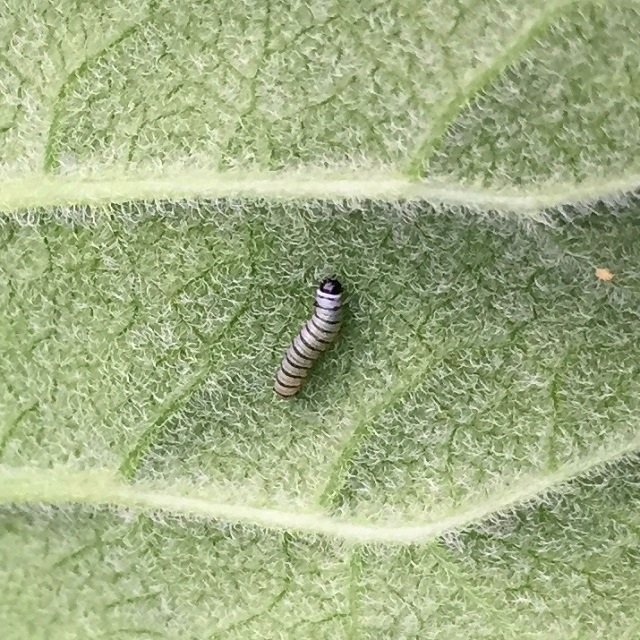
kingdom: Animalia
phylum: Arthropoda
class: Insecta
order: Lepidoptera
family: Nymphalidae
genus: Danaus
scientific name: Danaus plexippus
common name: Monarch
